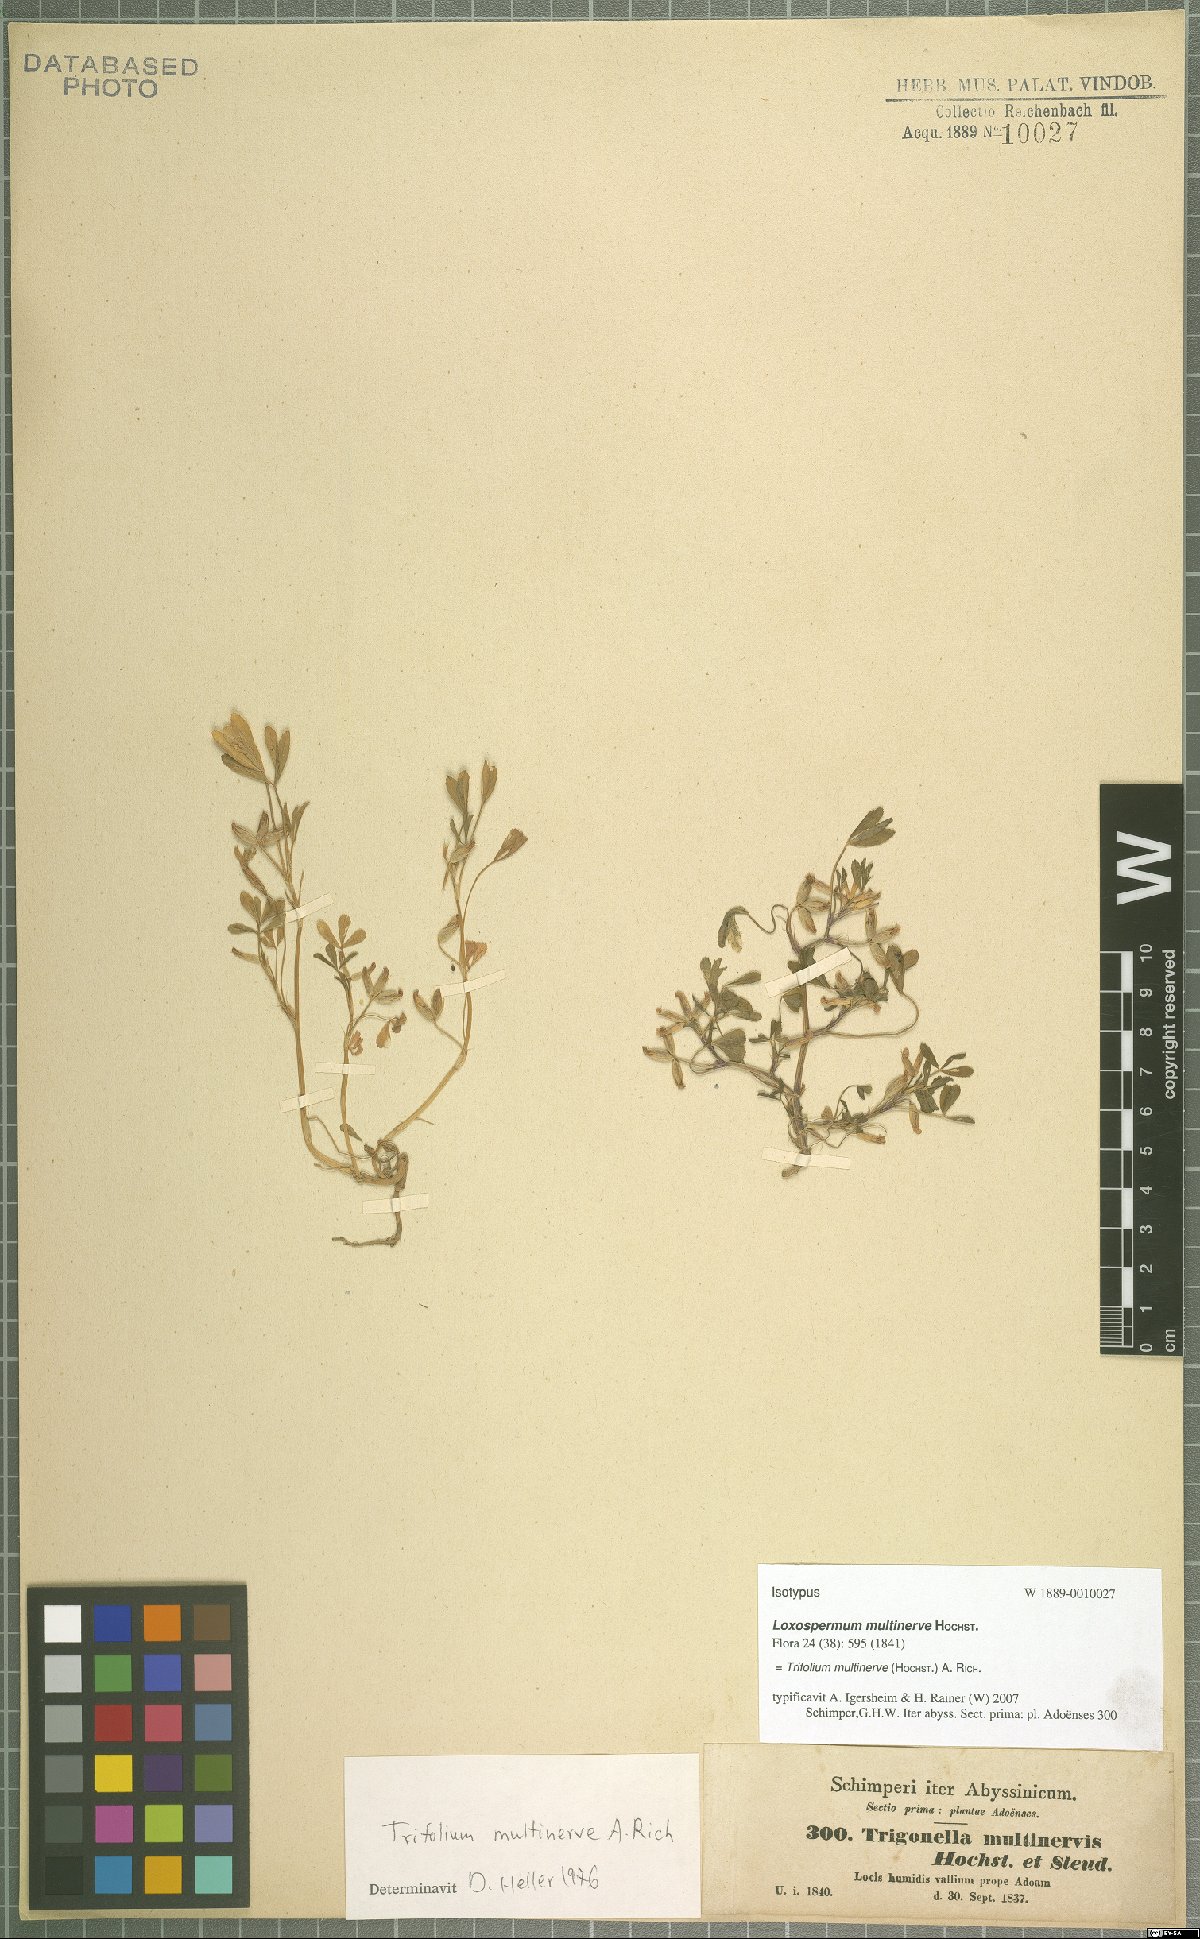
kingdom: Plantae
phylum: Tracheophyta
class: Magnoliopsida
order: Fabales
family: Fabaceae
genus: Trifolium
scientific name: Trifolium multinerve
